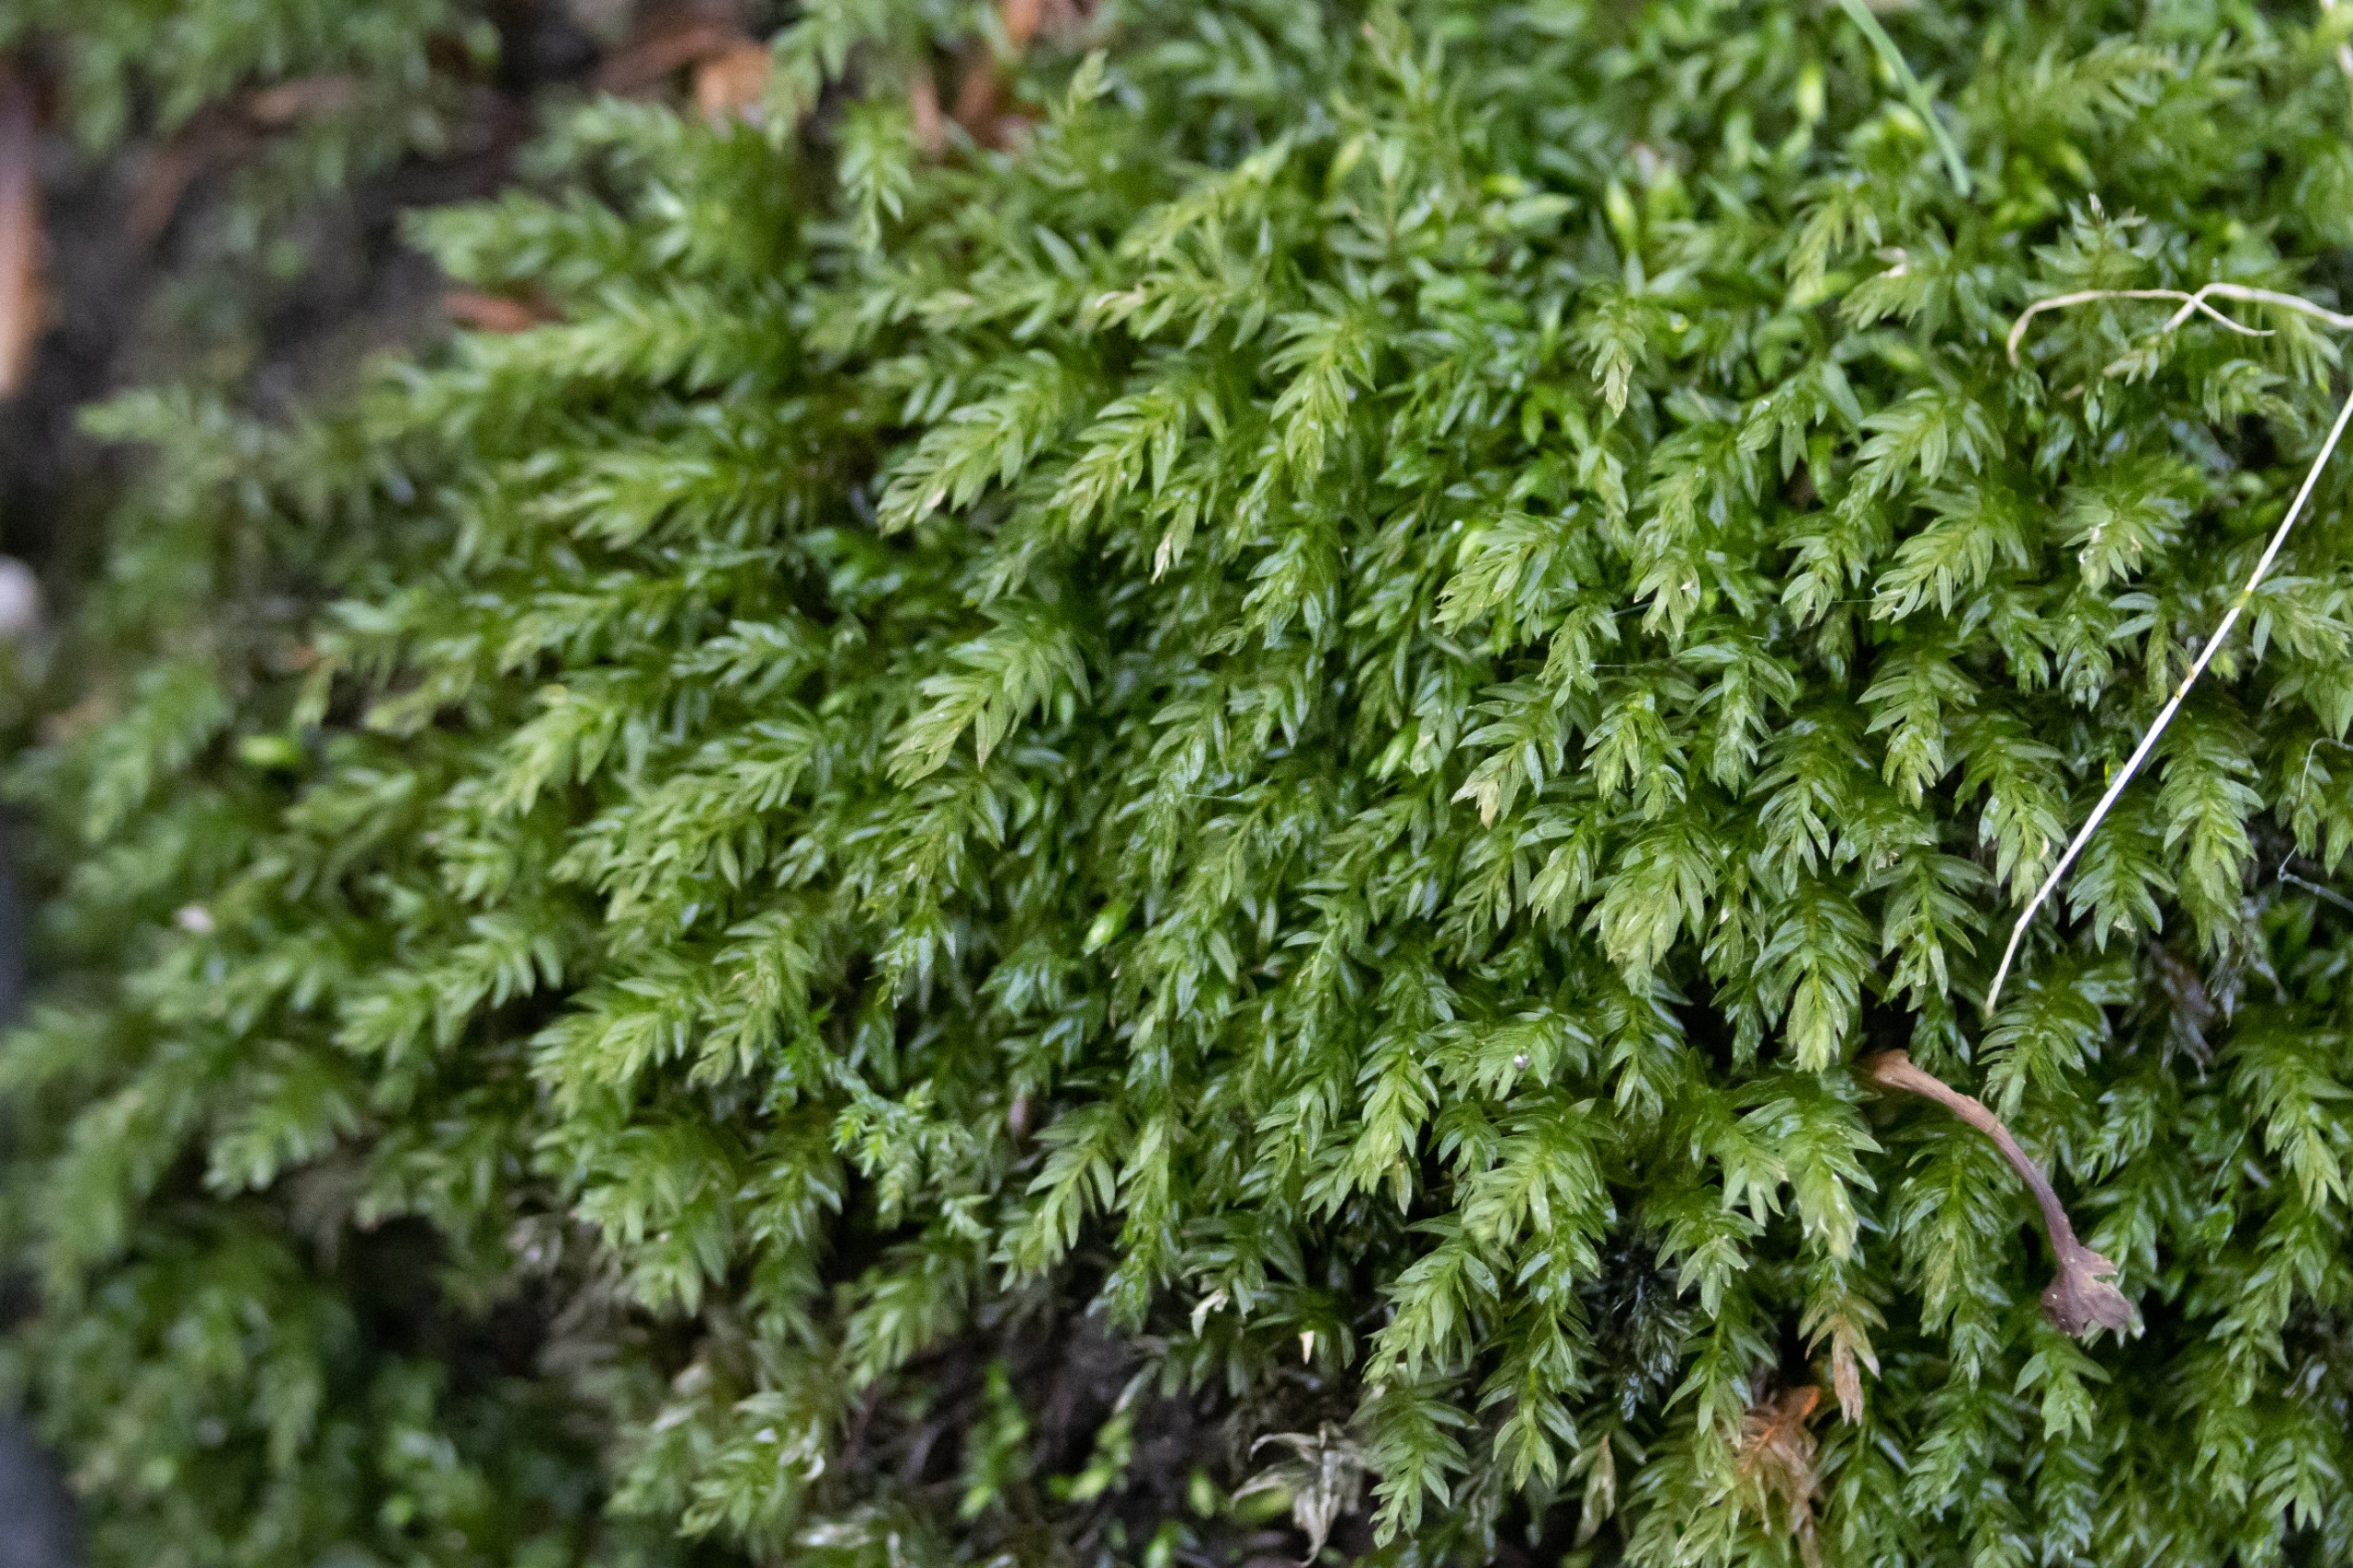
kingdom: Plantae
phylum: Bryophyta
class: Bryopsida
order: Bryales
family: Mniaceae
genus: Mnium
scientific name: Mnium hornum
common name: Brunfiltet stjernemos
